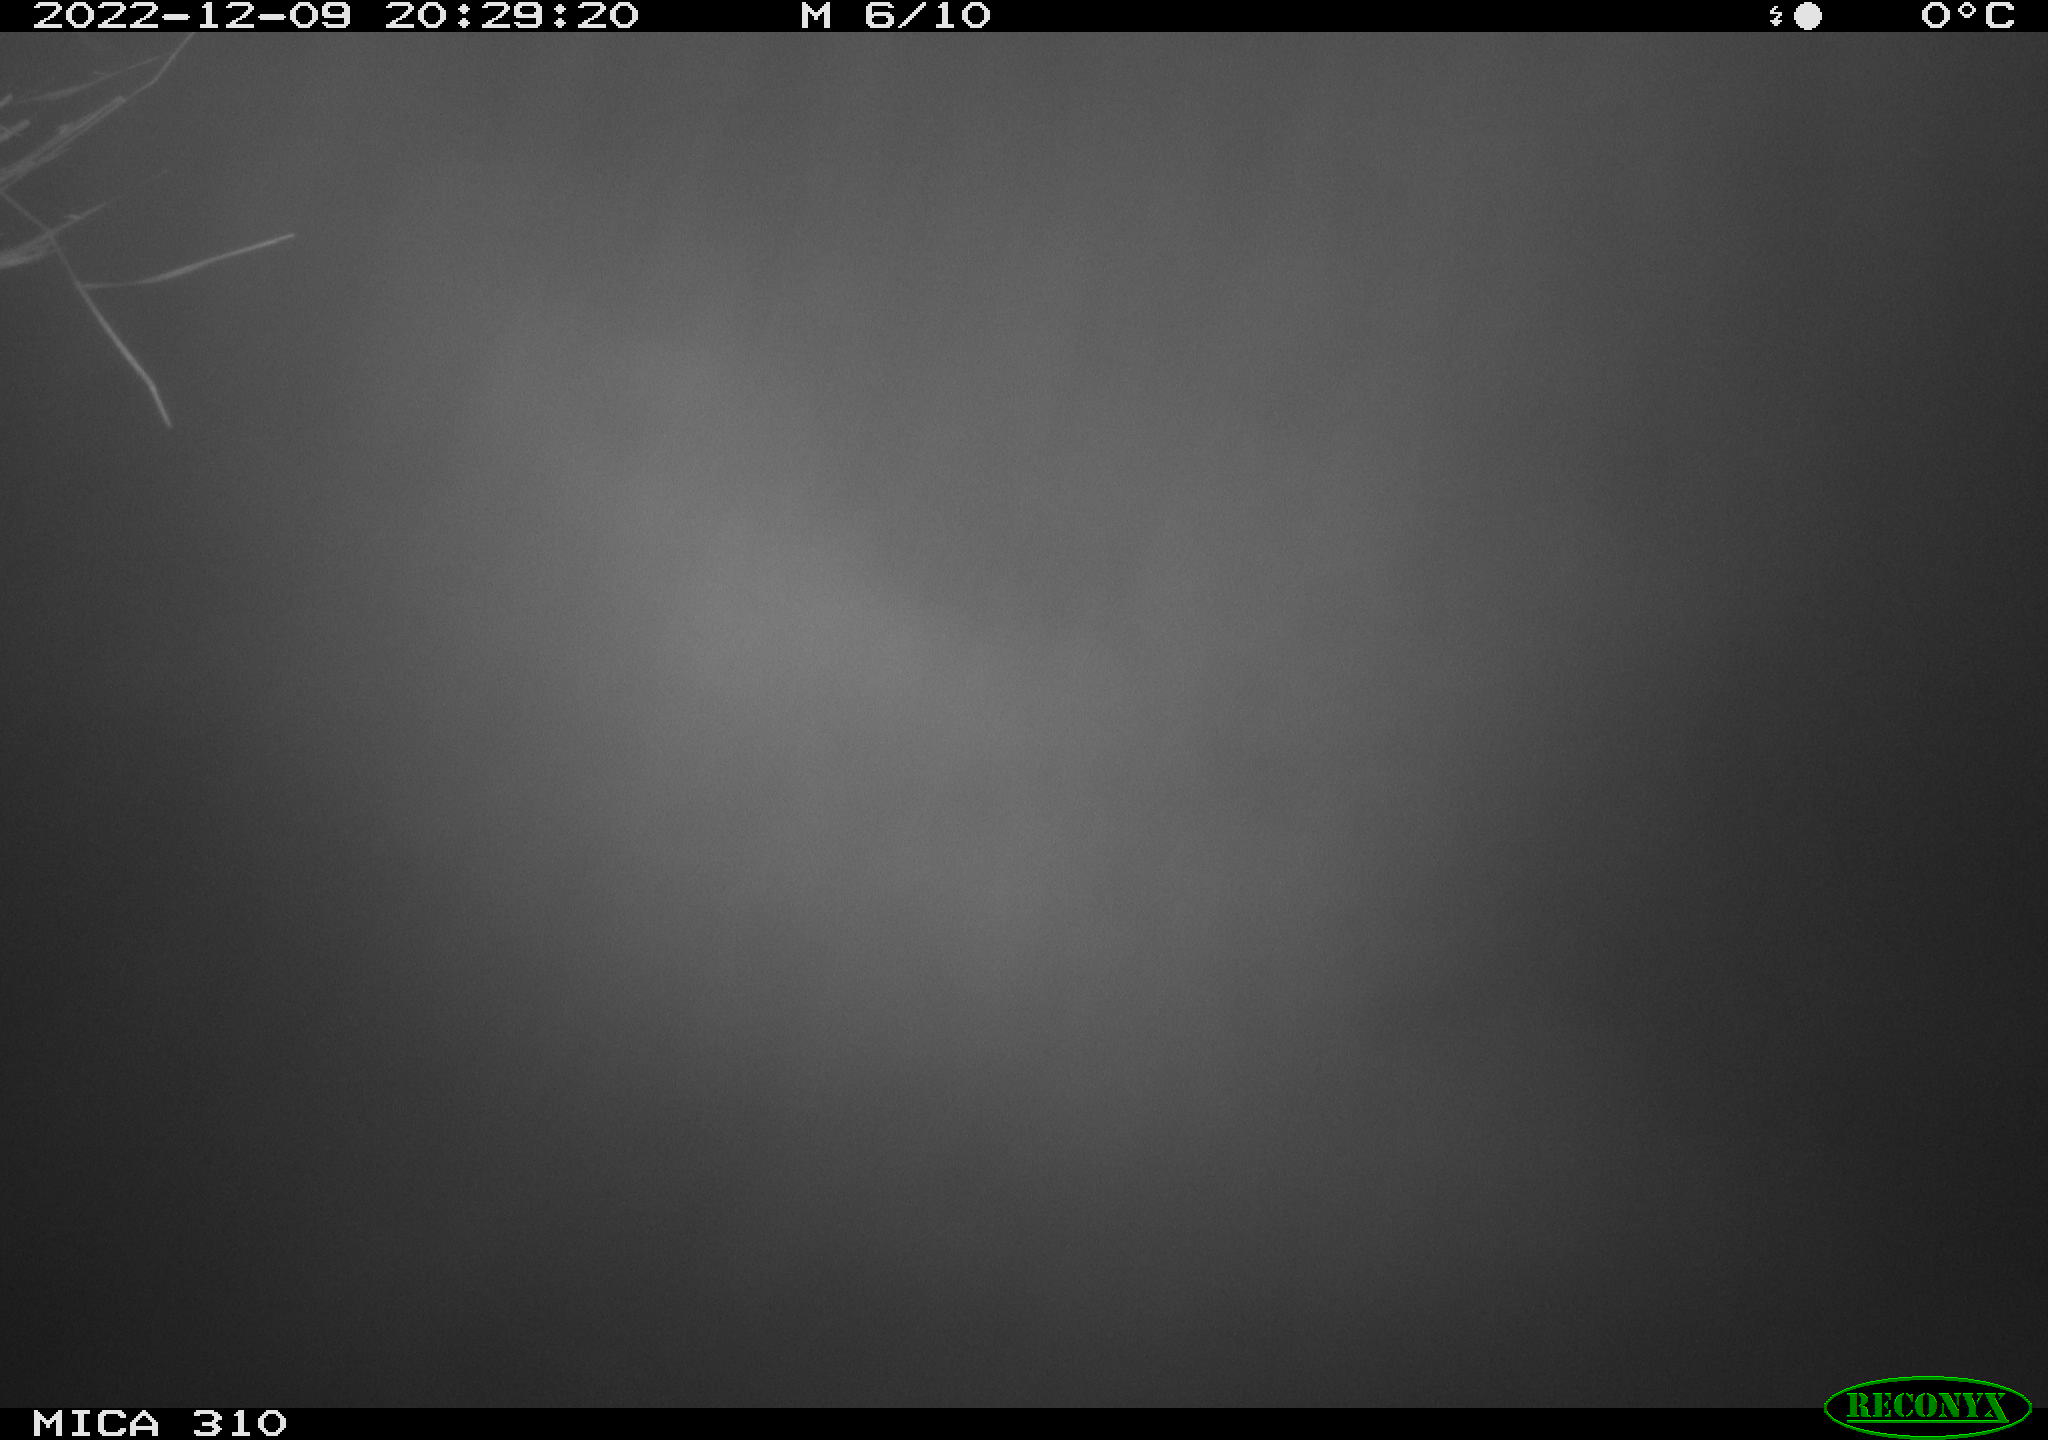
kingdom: Animalia
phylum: Chordata
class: Mammalia
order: Rodentia
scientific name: Rodentia
